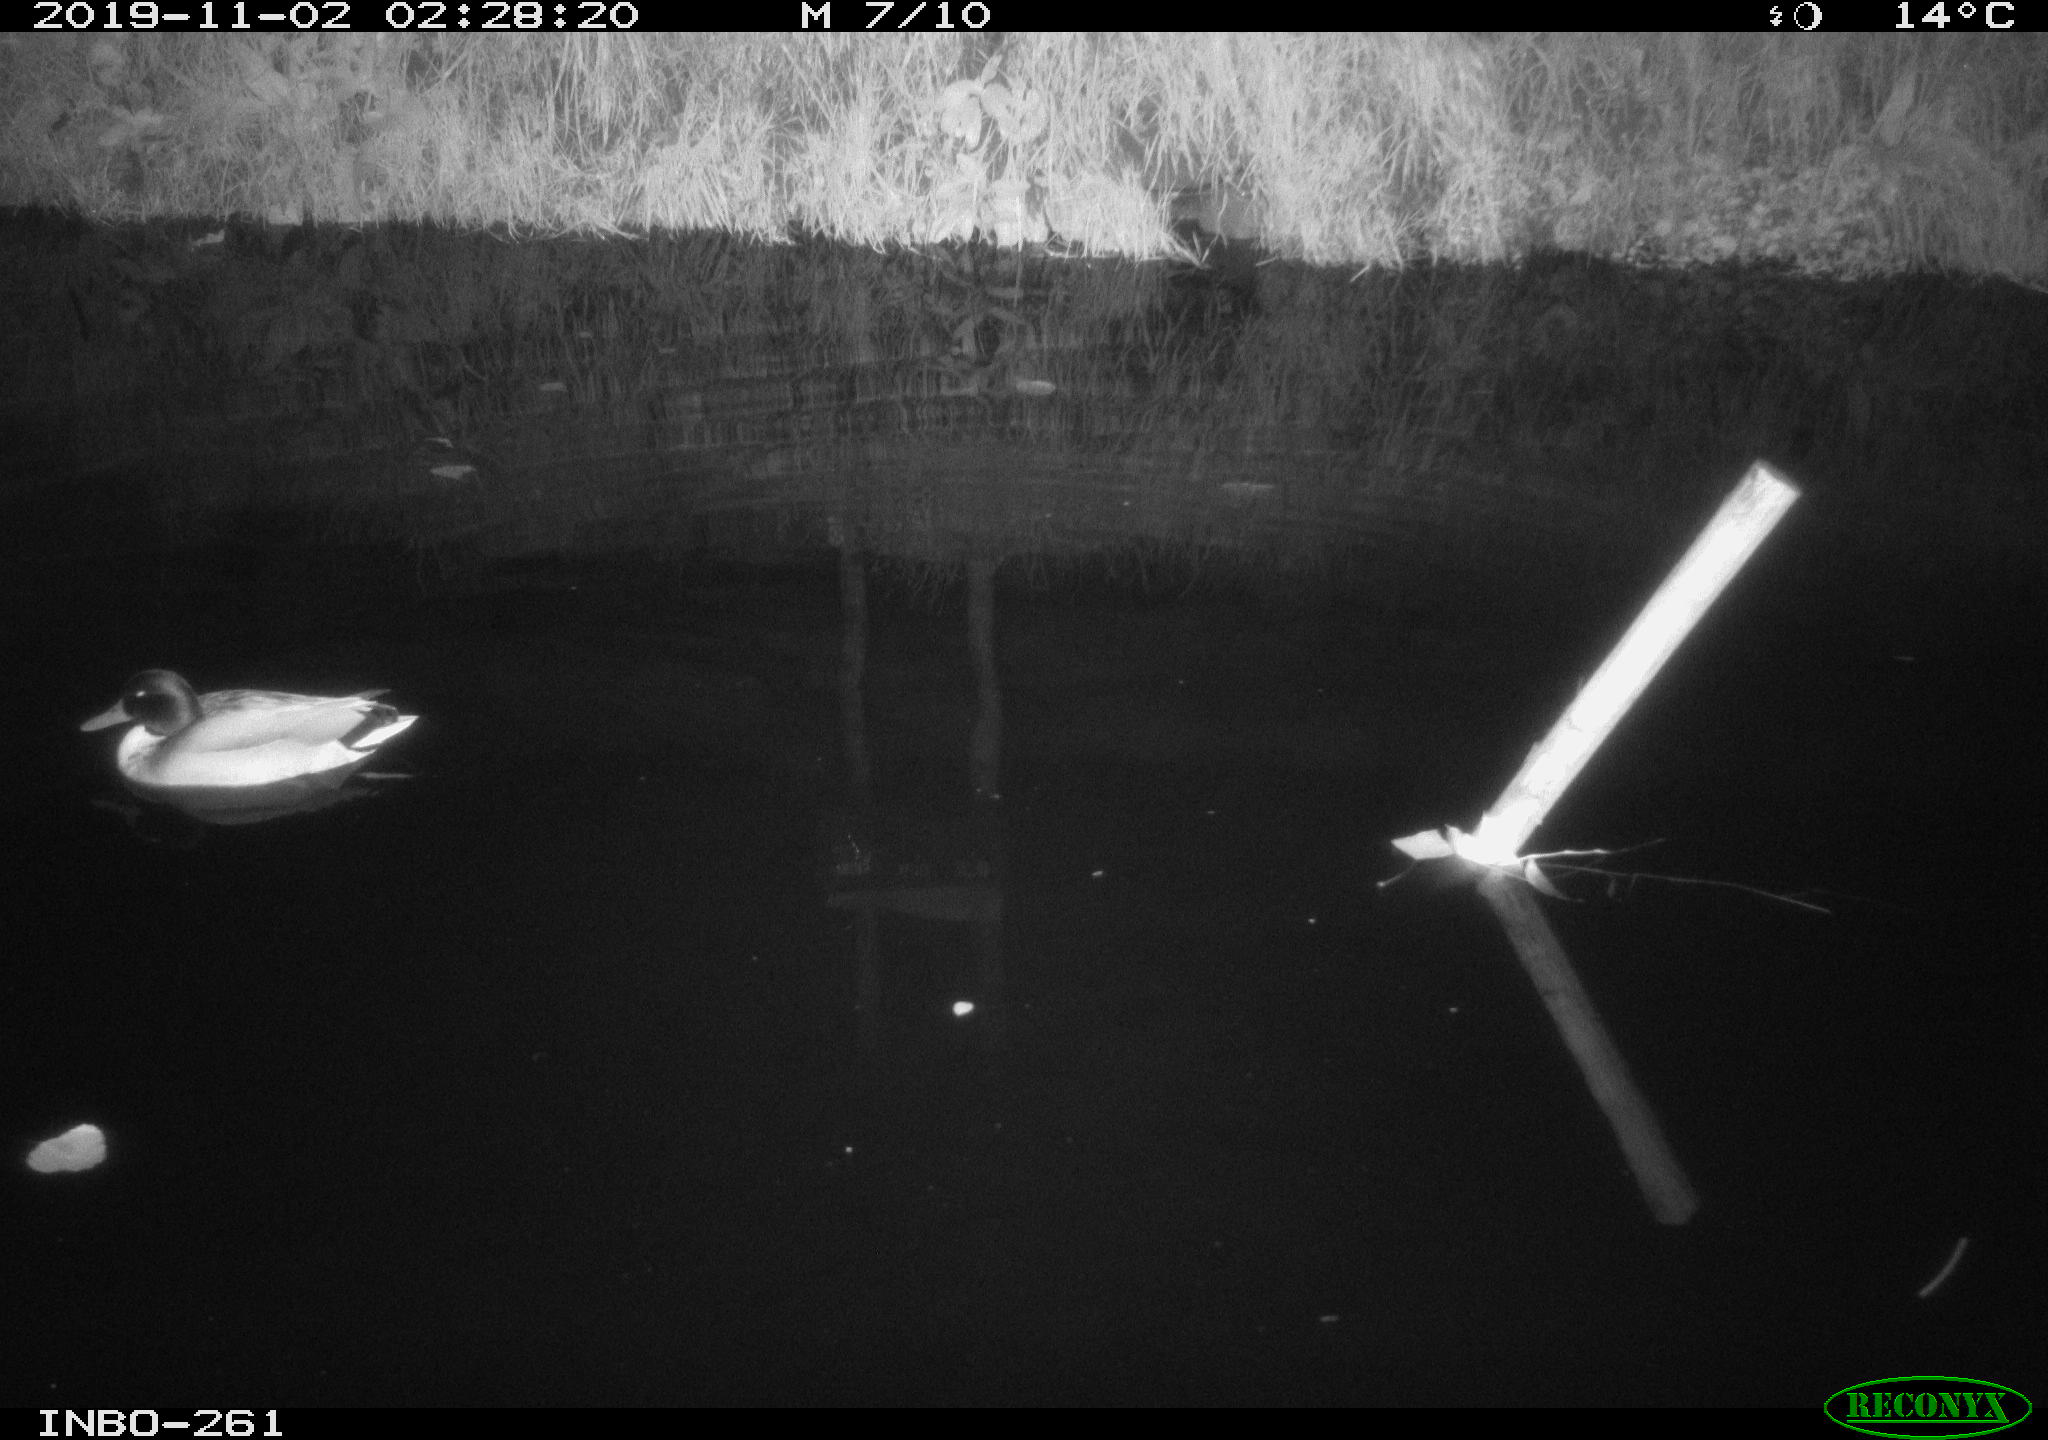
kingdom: Animalia
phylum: Chordata
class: Aves
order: Anseriformes
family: Anatidae
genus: Anas
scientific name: Anas platyrhynchos
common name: Mallard
